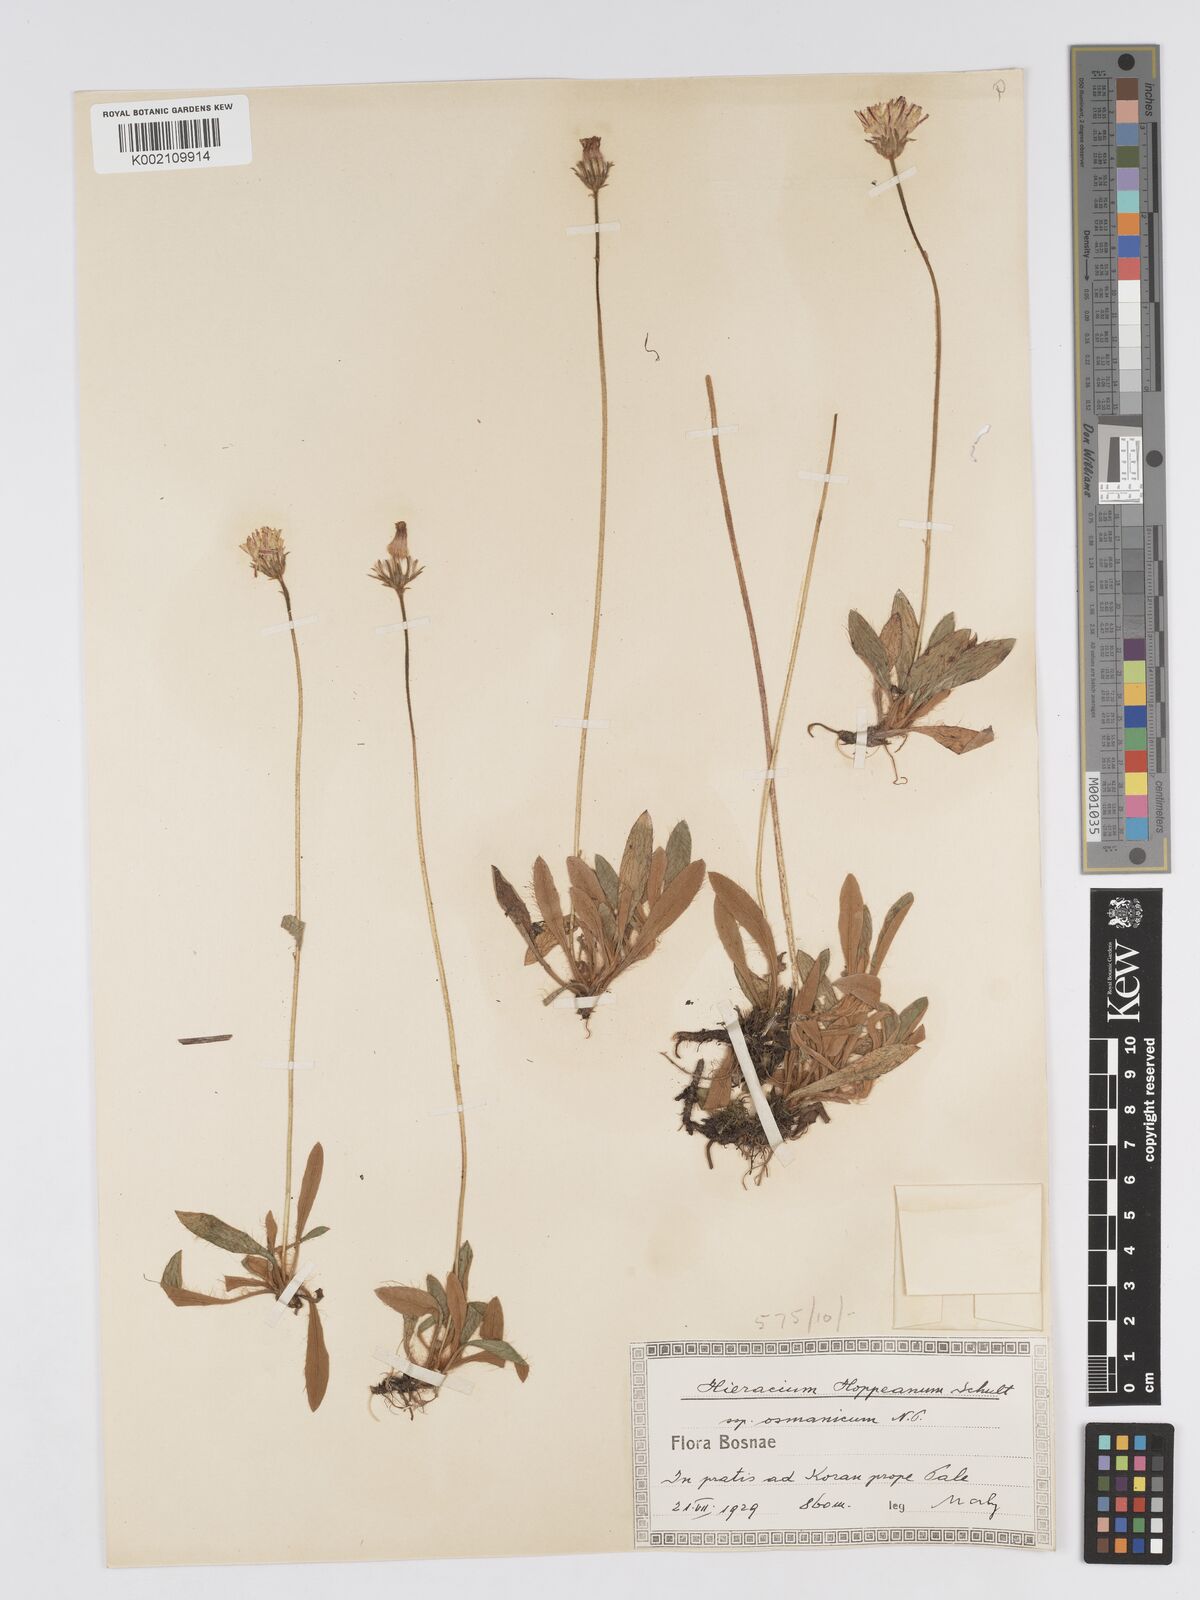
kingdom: Plantae
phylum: Tracheophyta
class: Magnoliopsida
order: Asterales
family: Asteraceae
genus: Pilosella
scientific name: Pilosella hoppeana
